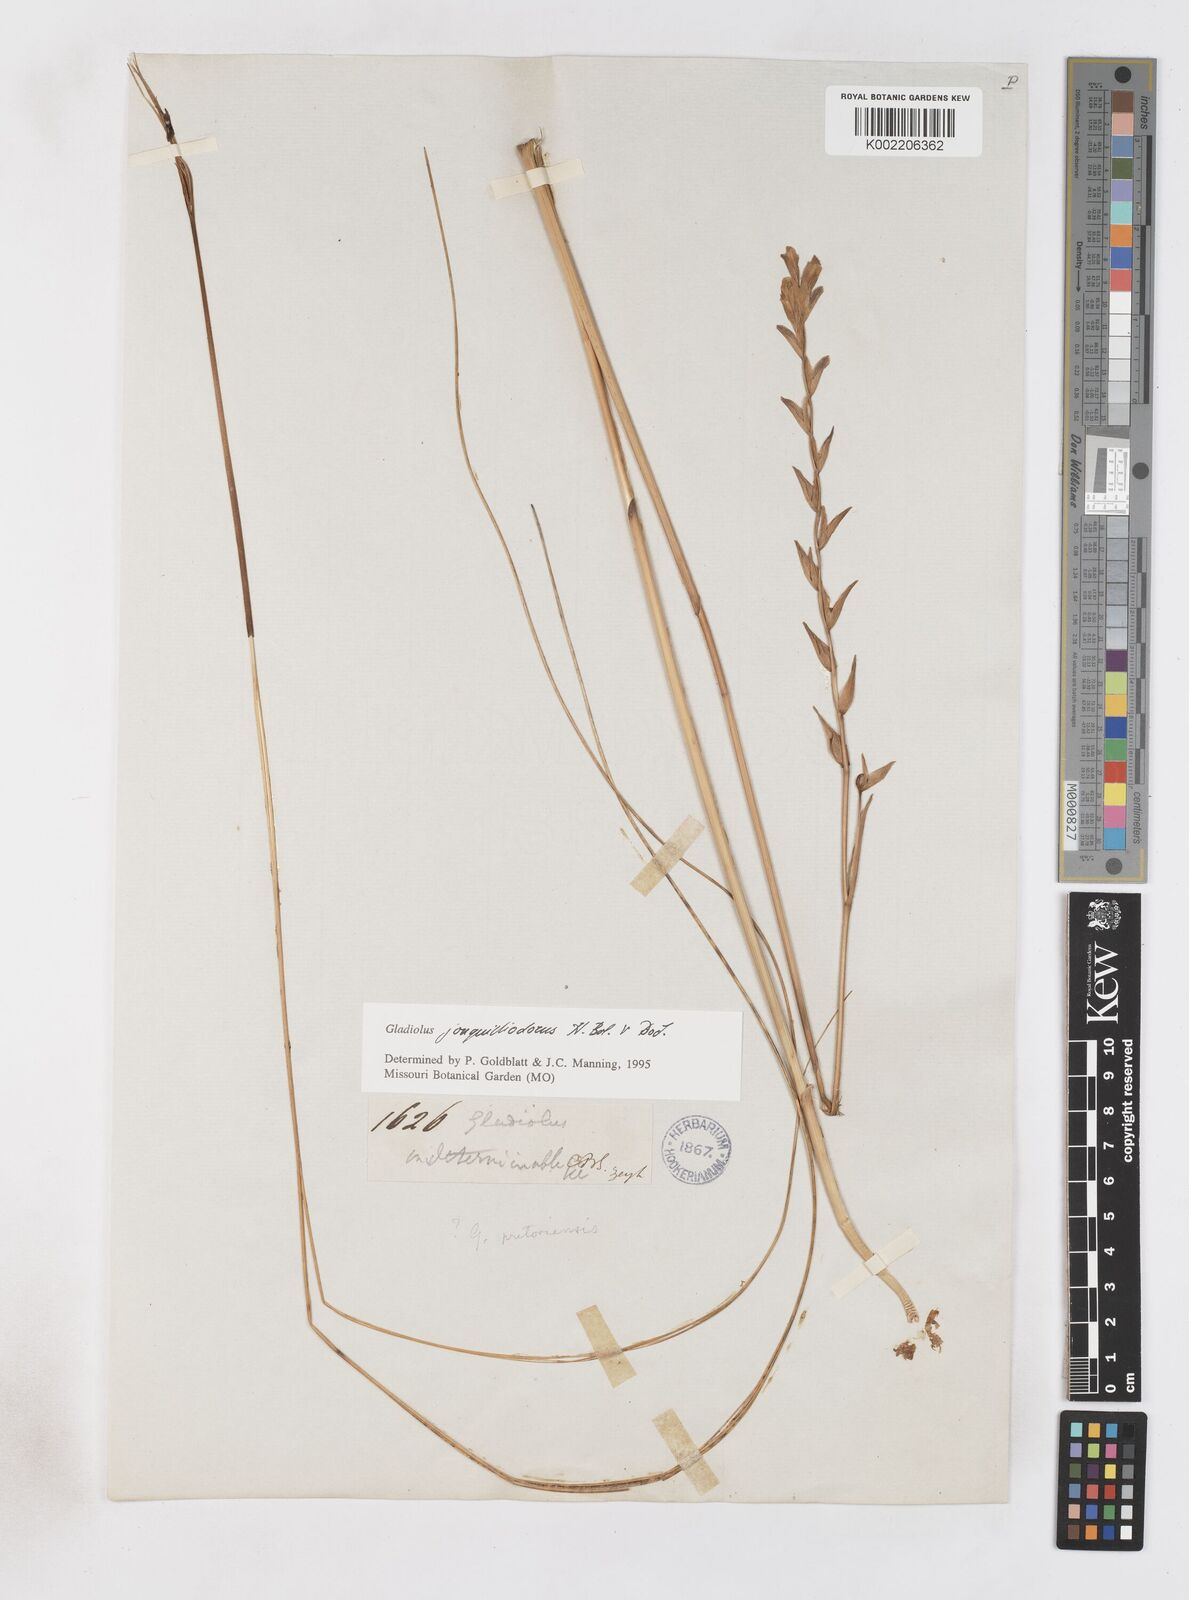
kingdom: Plantae
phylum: Tracheophyta
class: Liliopsida
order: Asparagales
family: Iridaceae
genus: Gladiolus
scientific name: Gladiolus jonquilodorus
